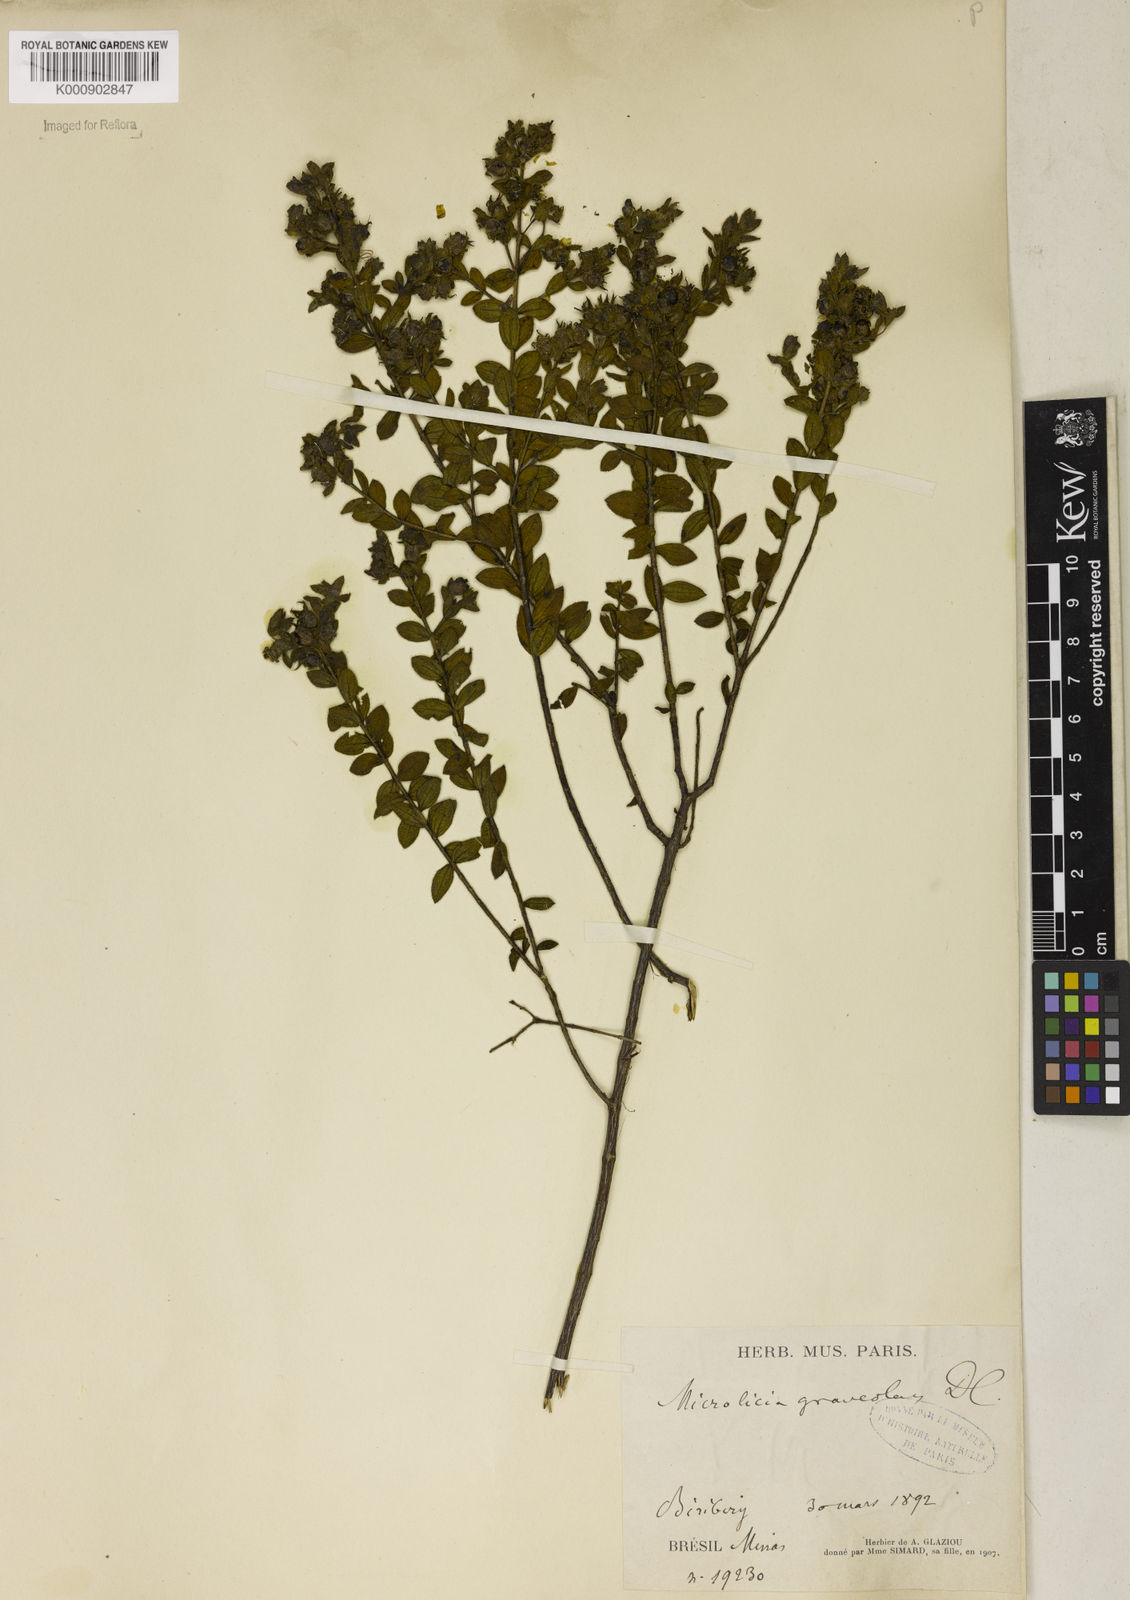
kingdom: Plantae
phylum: Tracheophyta
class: Magnoliopsida
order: Malpighiales
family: Podostemaceae
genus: Diamantina
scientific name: Diamantina
